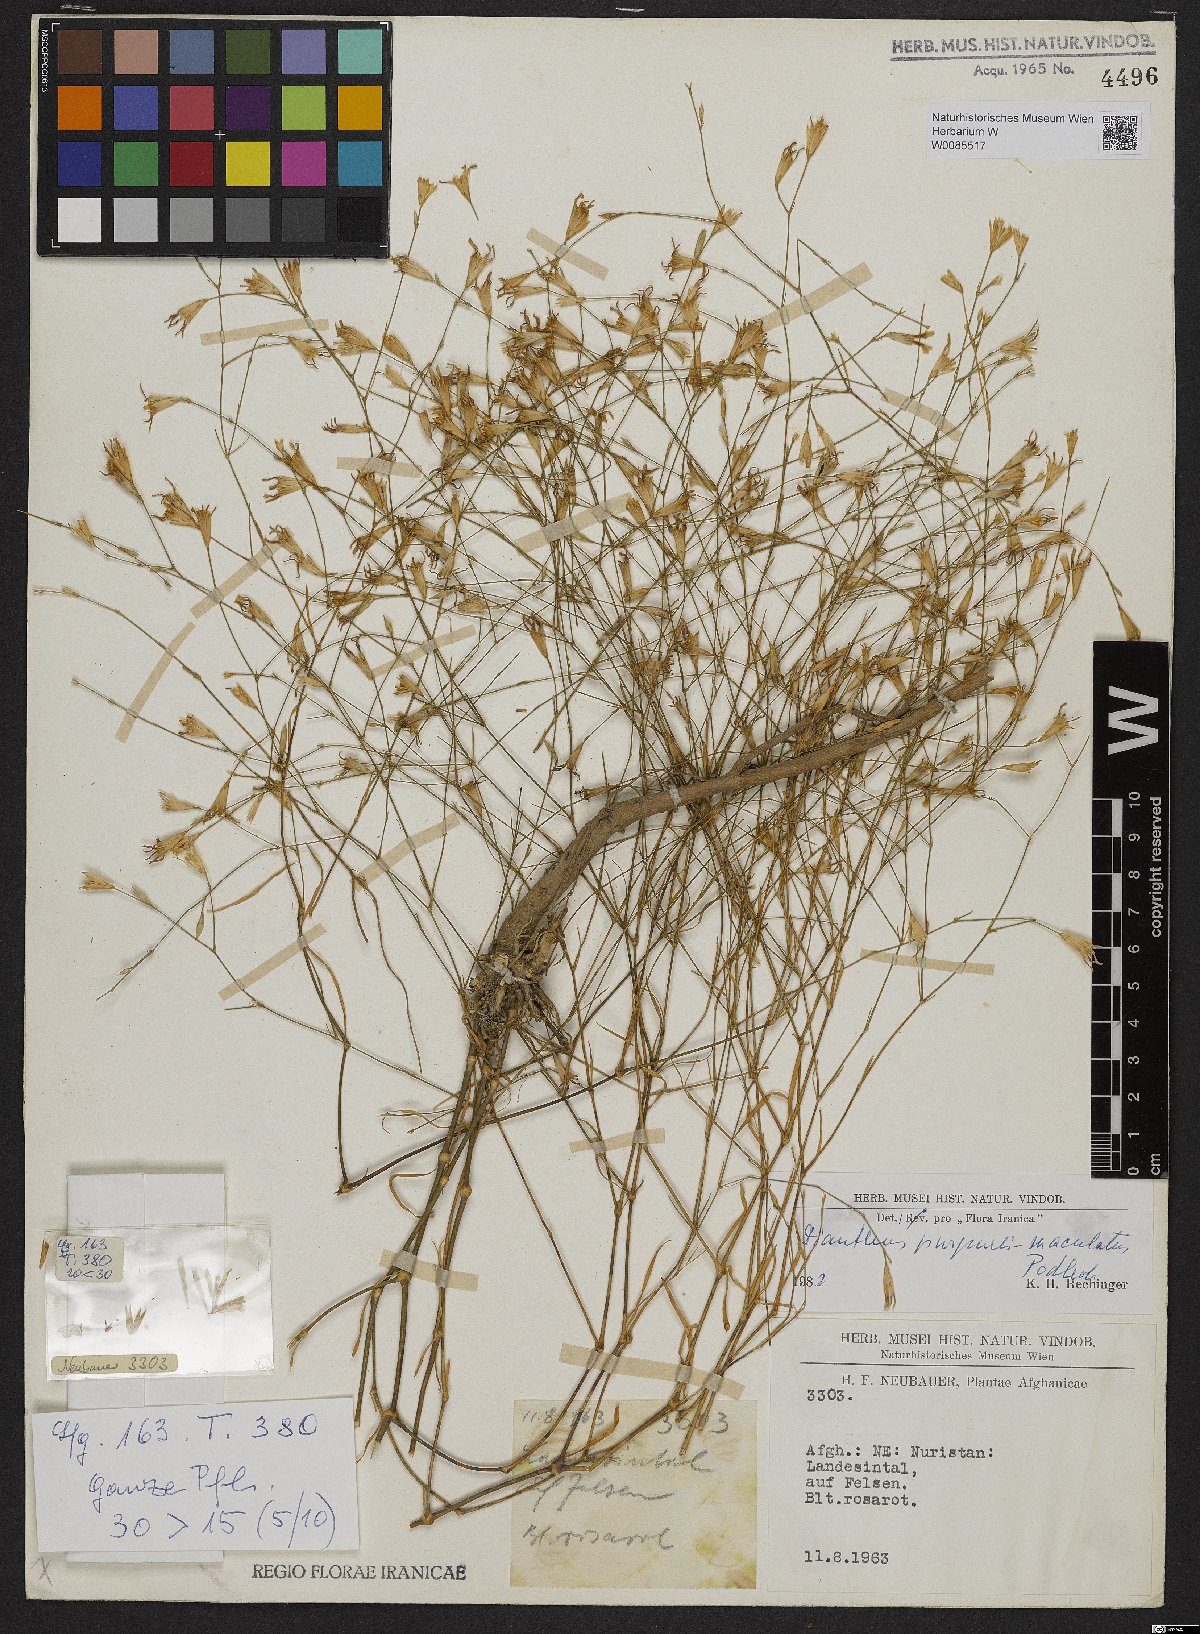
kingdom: Plantae
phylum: Tracheophyta
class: Magnoliopsida
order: Caryophyllales
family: Caryophyllaceae
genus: Dianthus
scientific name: Dianthus purpureimaculatus
